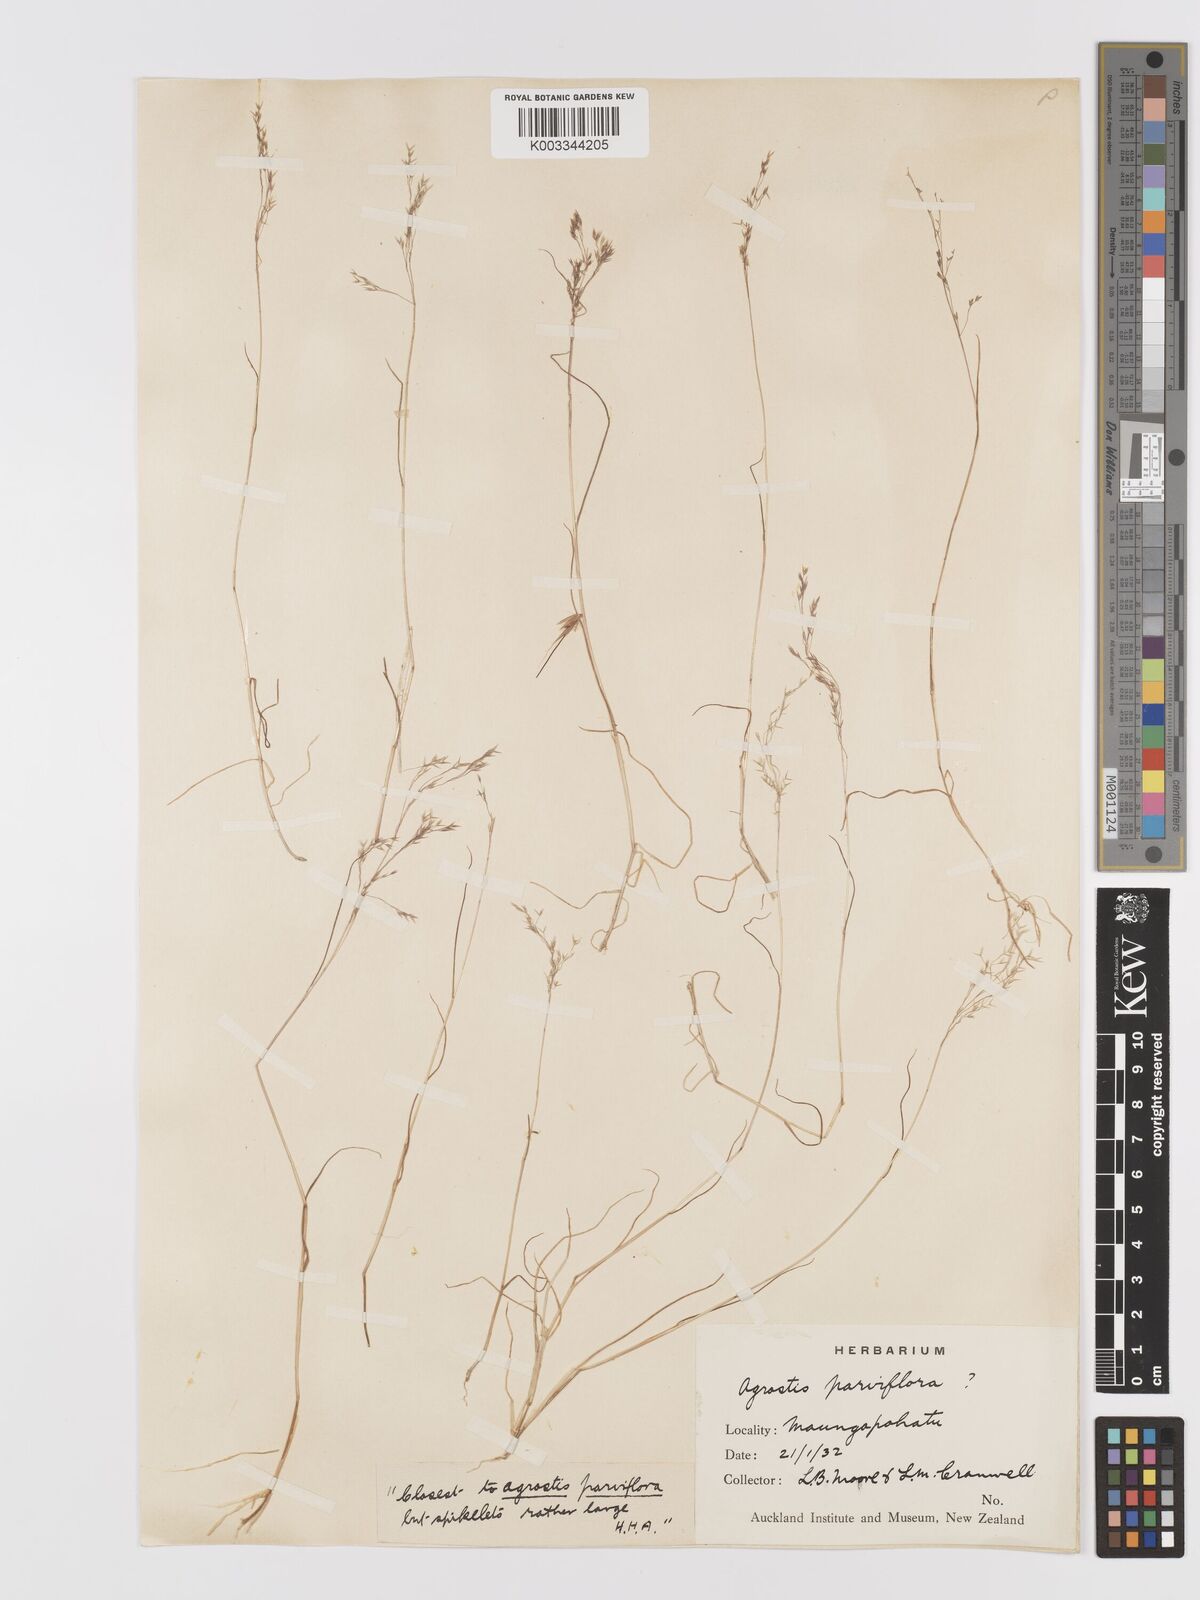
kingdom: Plantae
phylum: Tracheophyta
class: Liliopsida
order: Poales
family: Poaceae
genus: Agrostis
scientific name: Agrostis parviflora
